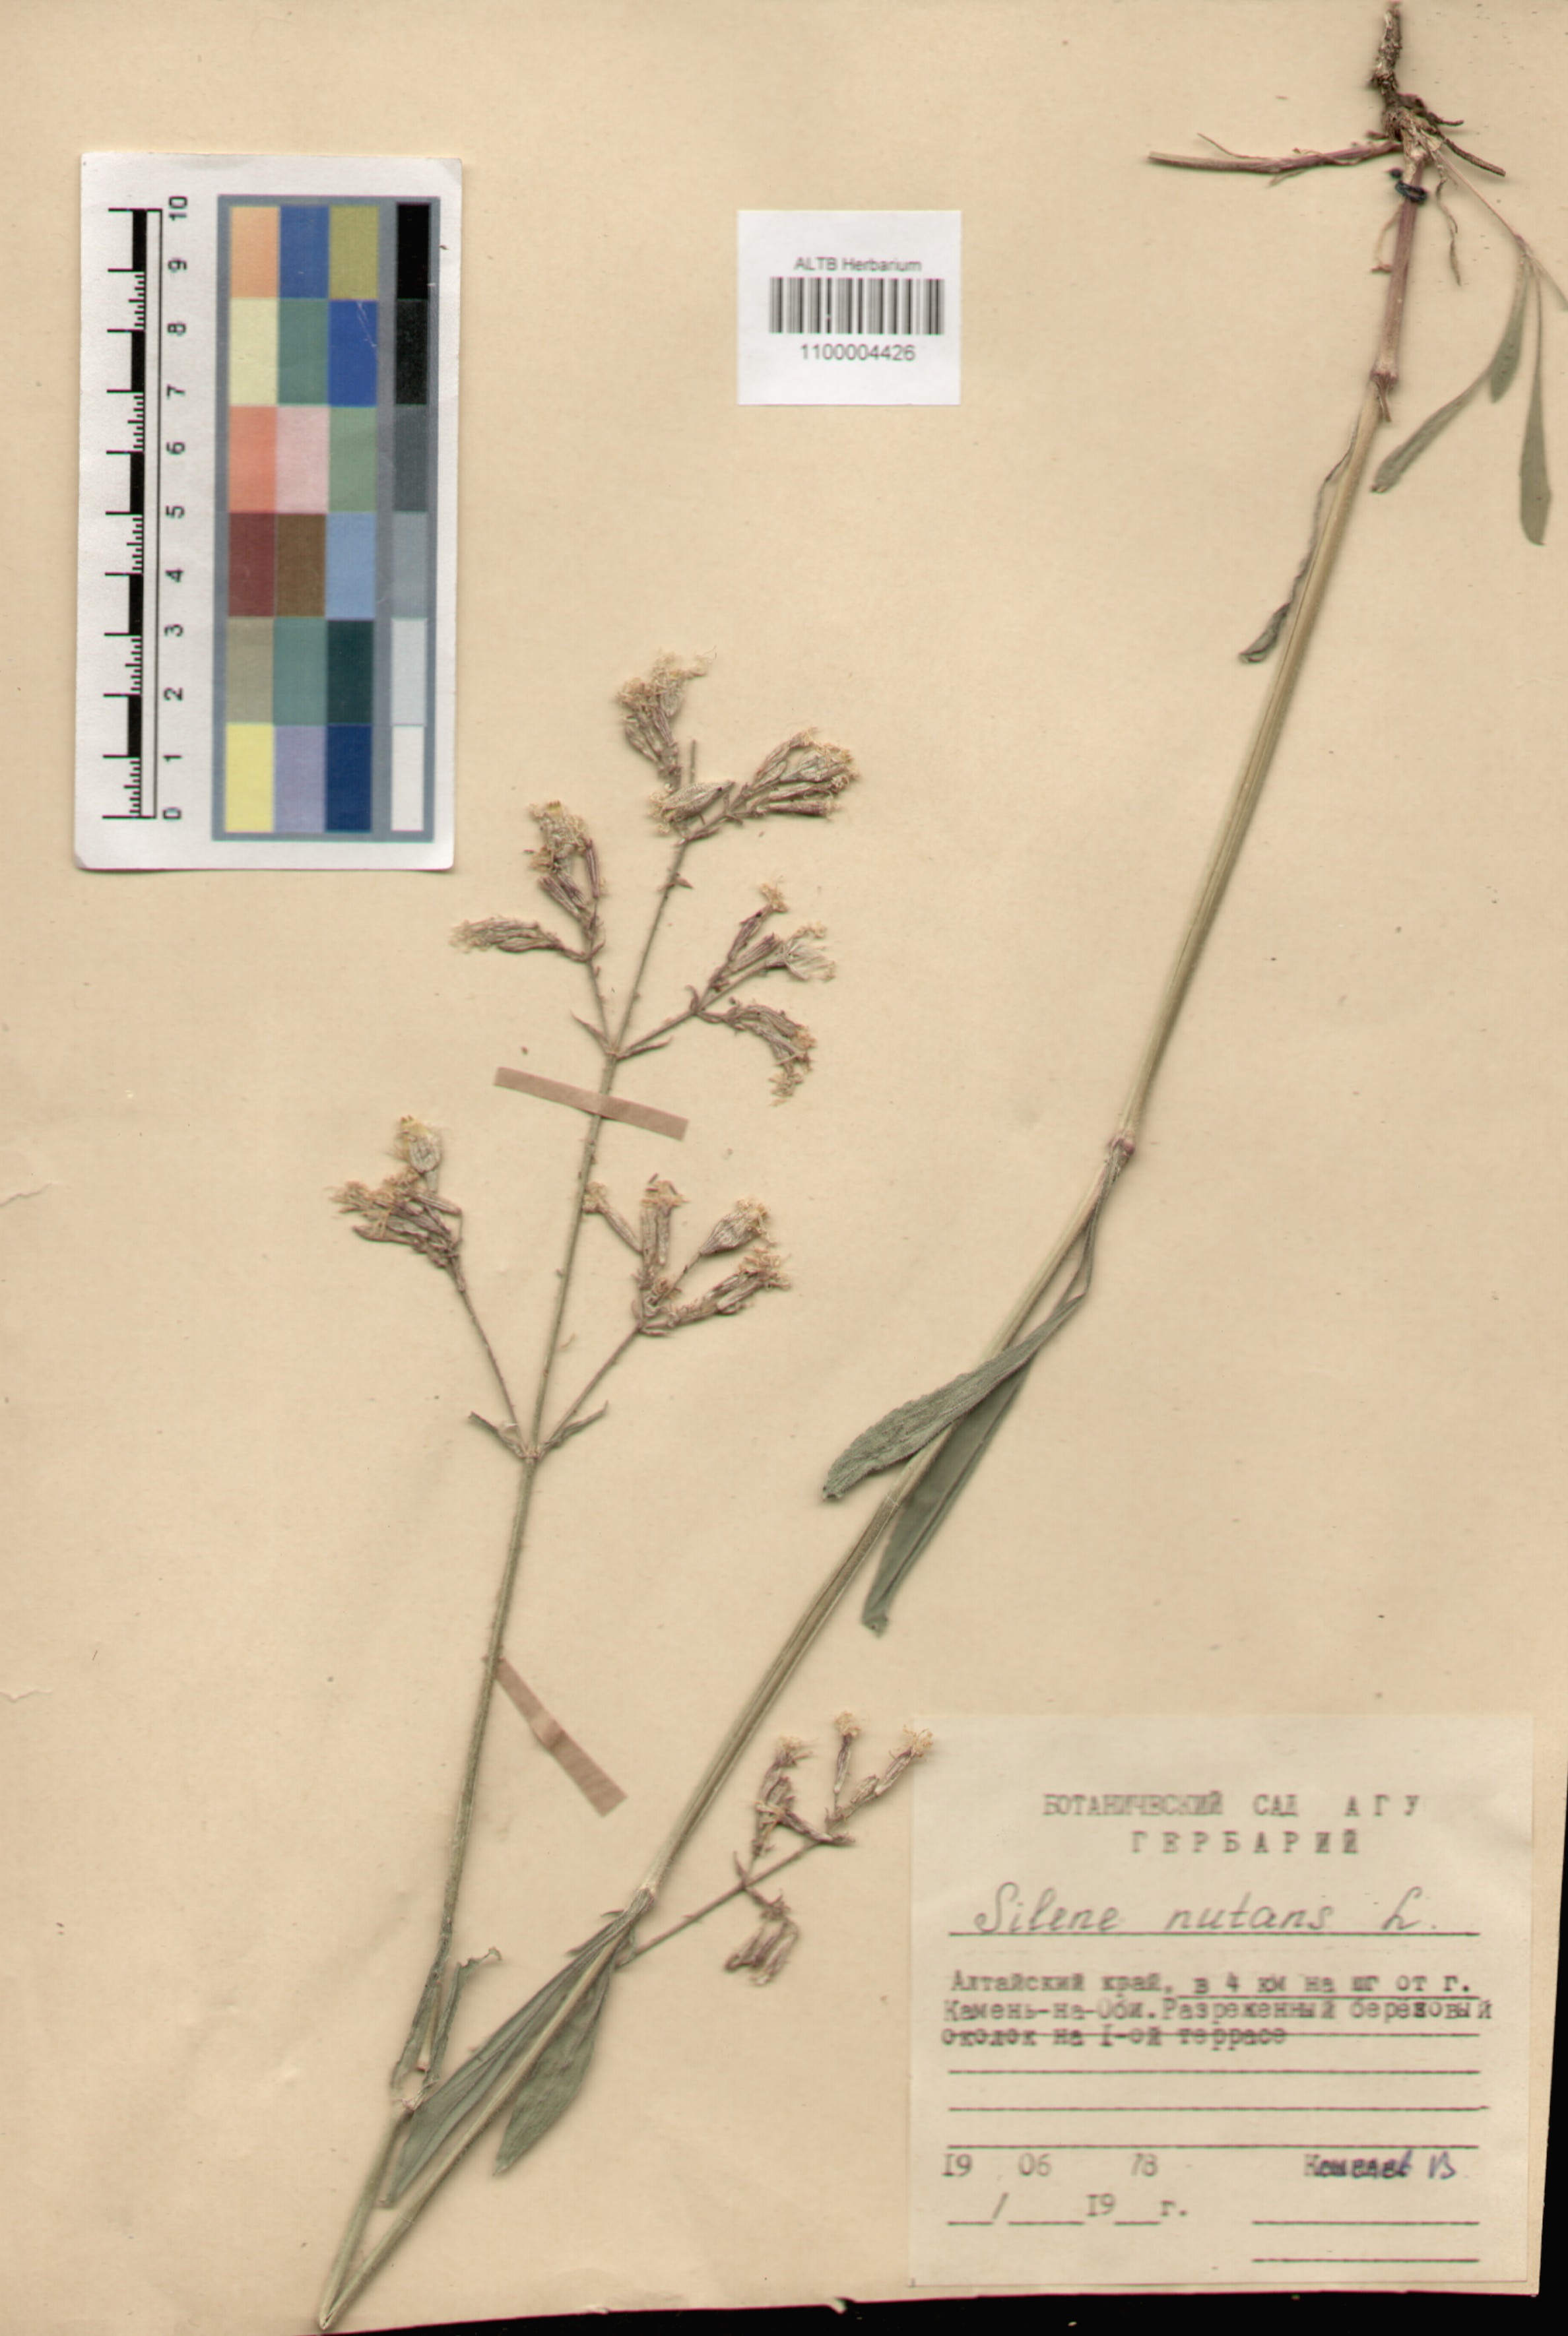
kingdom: Plantae
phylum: Tracheophyta
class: Magnoliopsida
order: Caryophyllales
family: Caryophyllaceae
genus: Silene
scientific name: Silene nutans
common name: Nottingham catchfly
